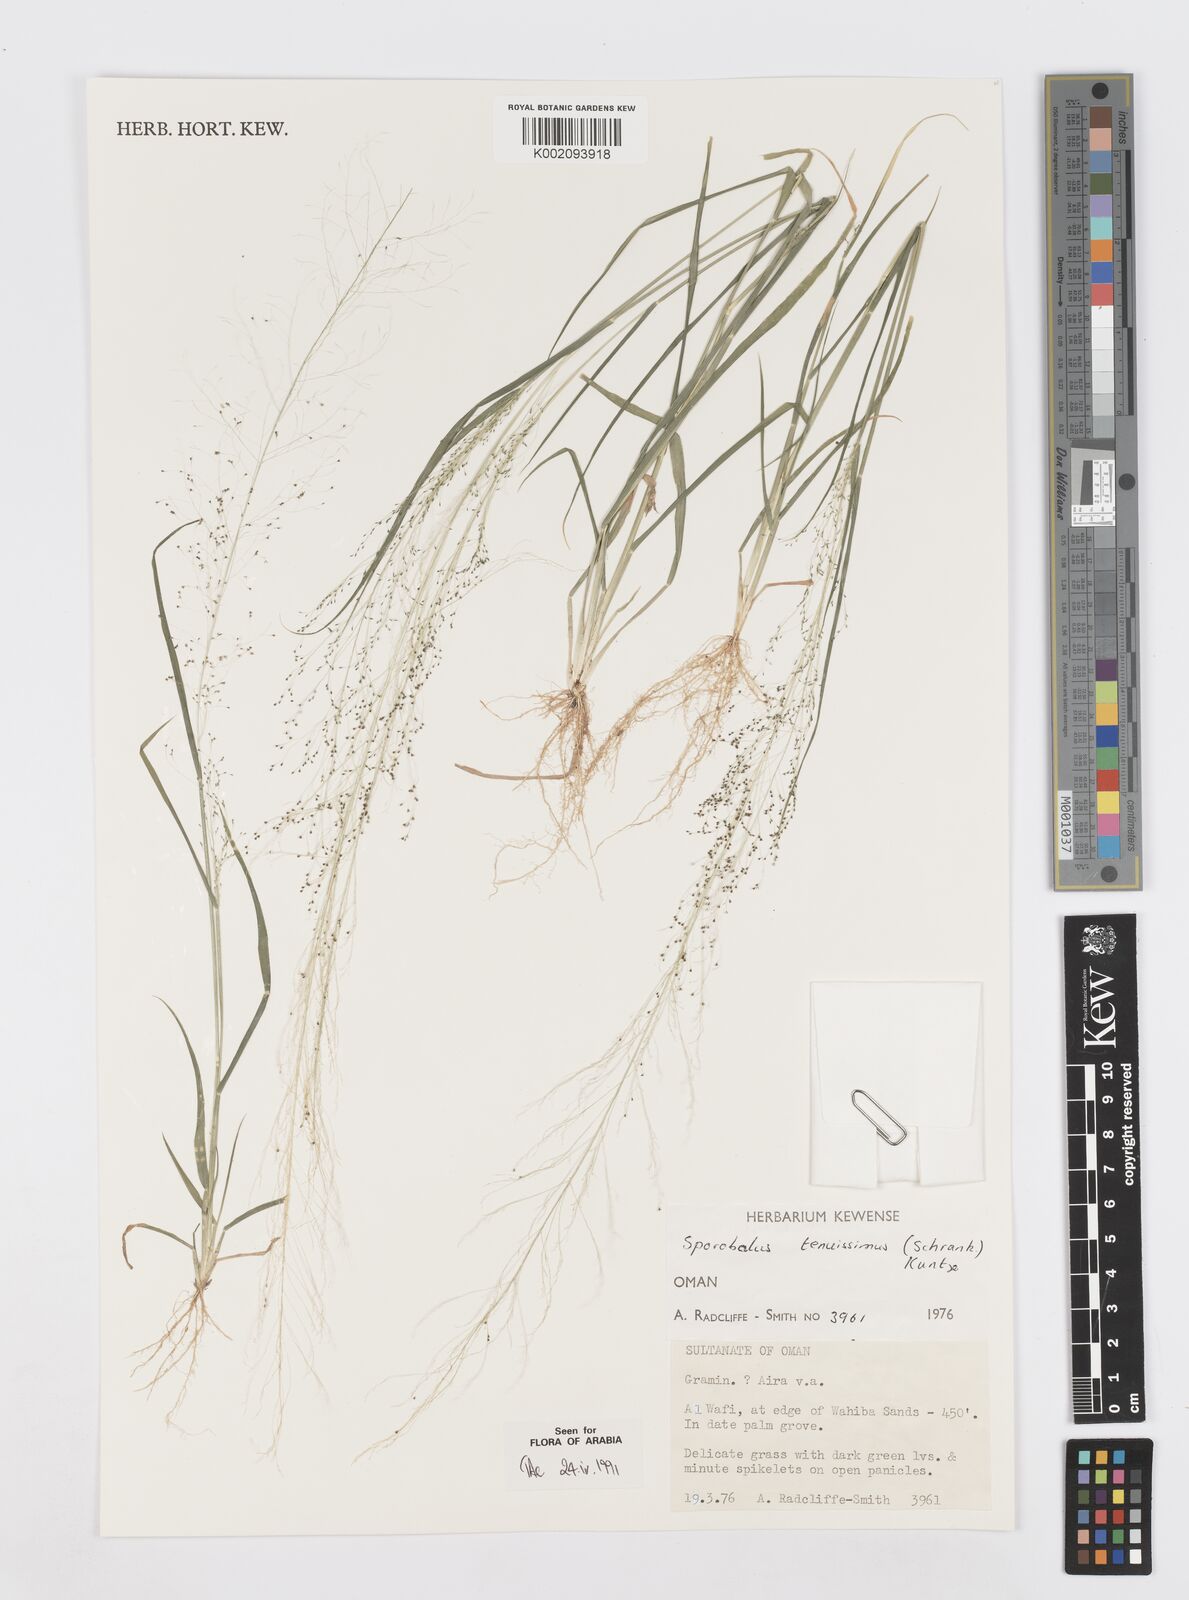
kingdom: Plantae
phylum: Tracheophyta
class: Liliopsida
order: Poales
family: Poaceae
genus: Sporobolus
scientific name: Sporobolus tenuissimus
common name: Tropical dropseed
